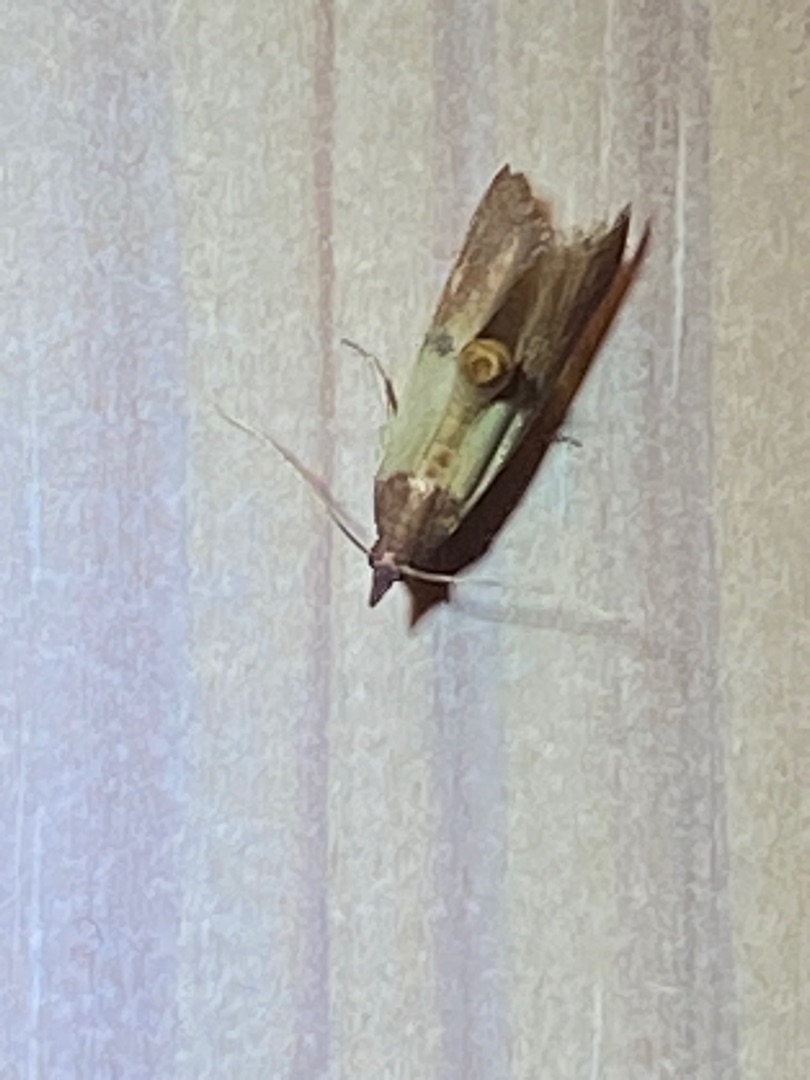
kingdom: Animalia
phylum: Arthropoda
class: Insecta
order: Lepidoptera
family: Pyralidae
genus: Plodia
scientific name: Plodia interpunctella
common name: Tofarvet frømøl
